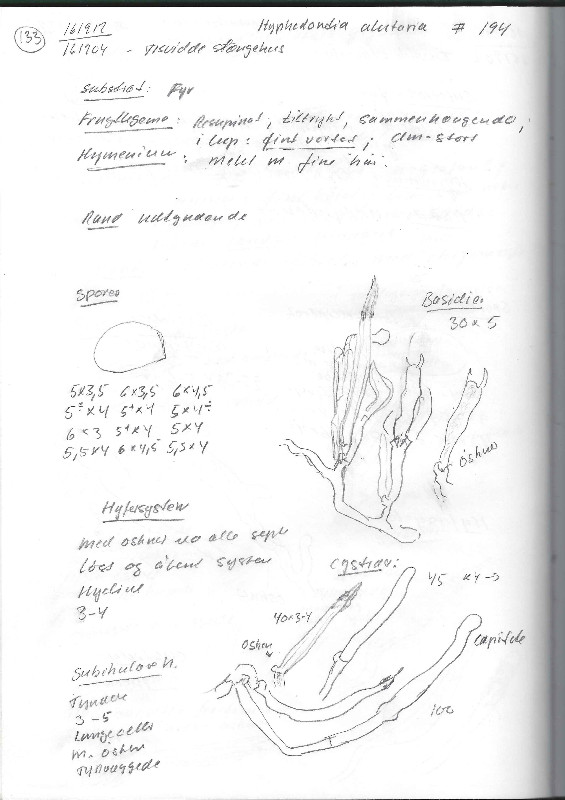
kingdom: Fungi
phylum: Basidiomycota
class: Agaricomycetes
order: Hymenochaetales
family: Hyphodontiaceae
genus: Hyphodontia
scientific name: Hyphodontia alutaria
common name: flaskerenser-nålehinde
